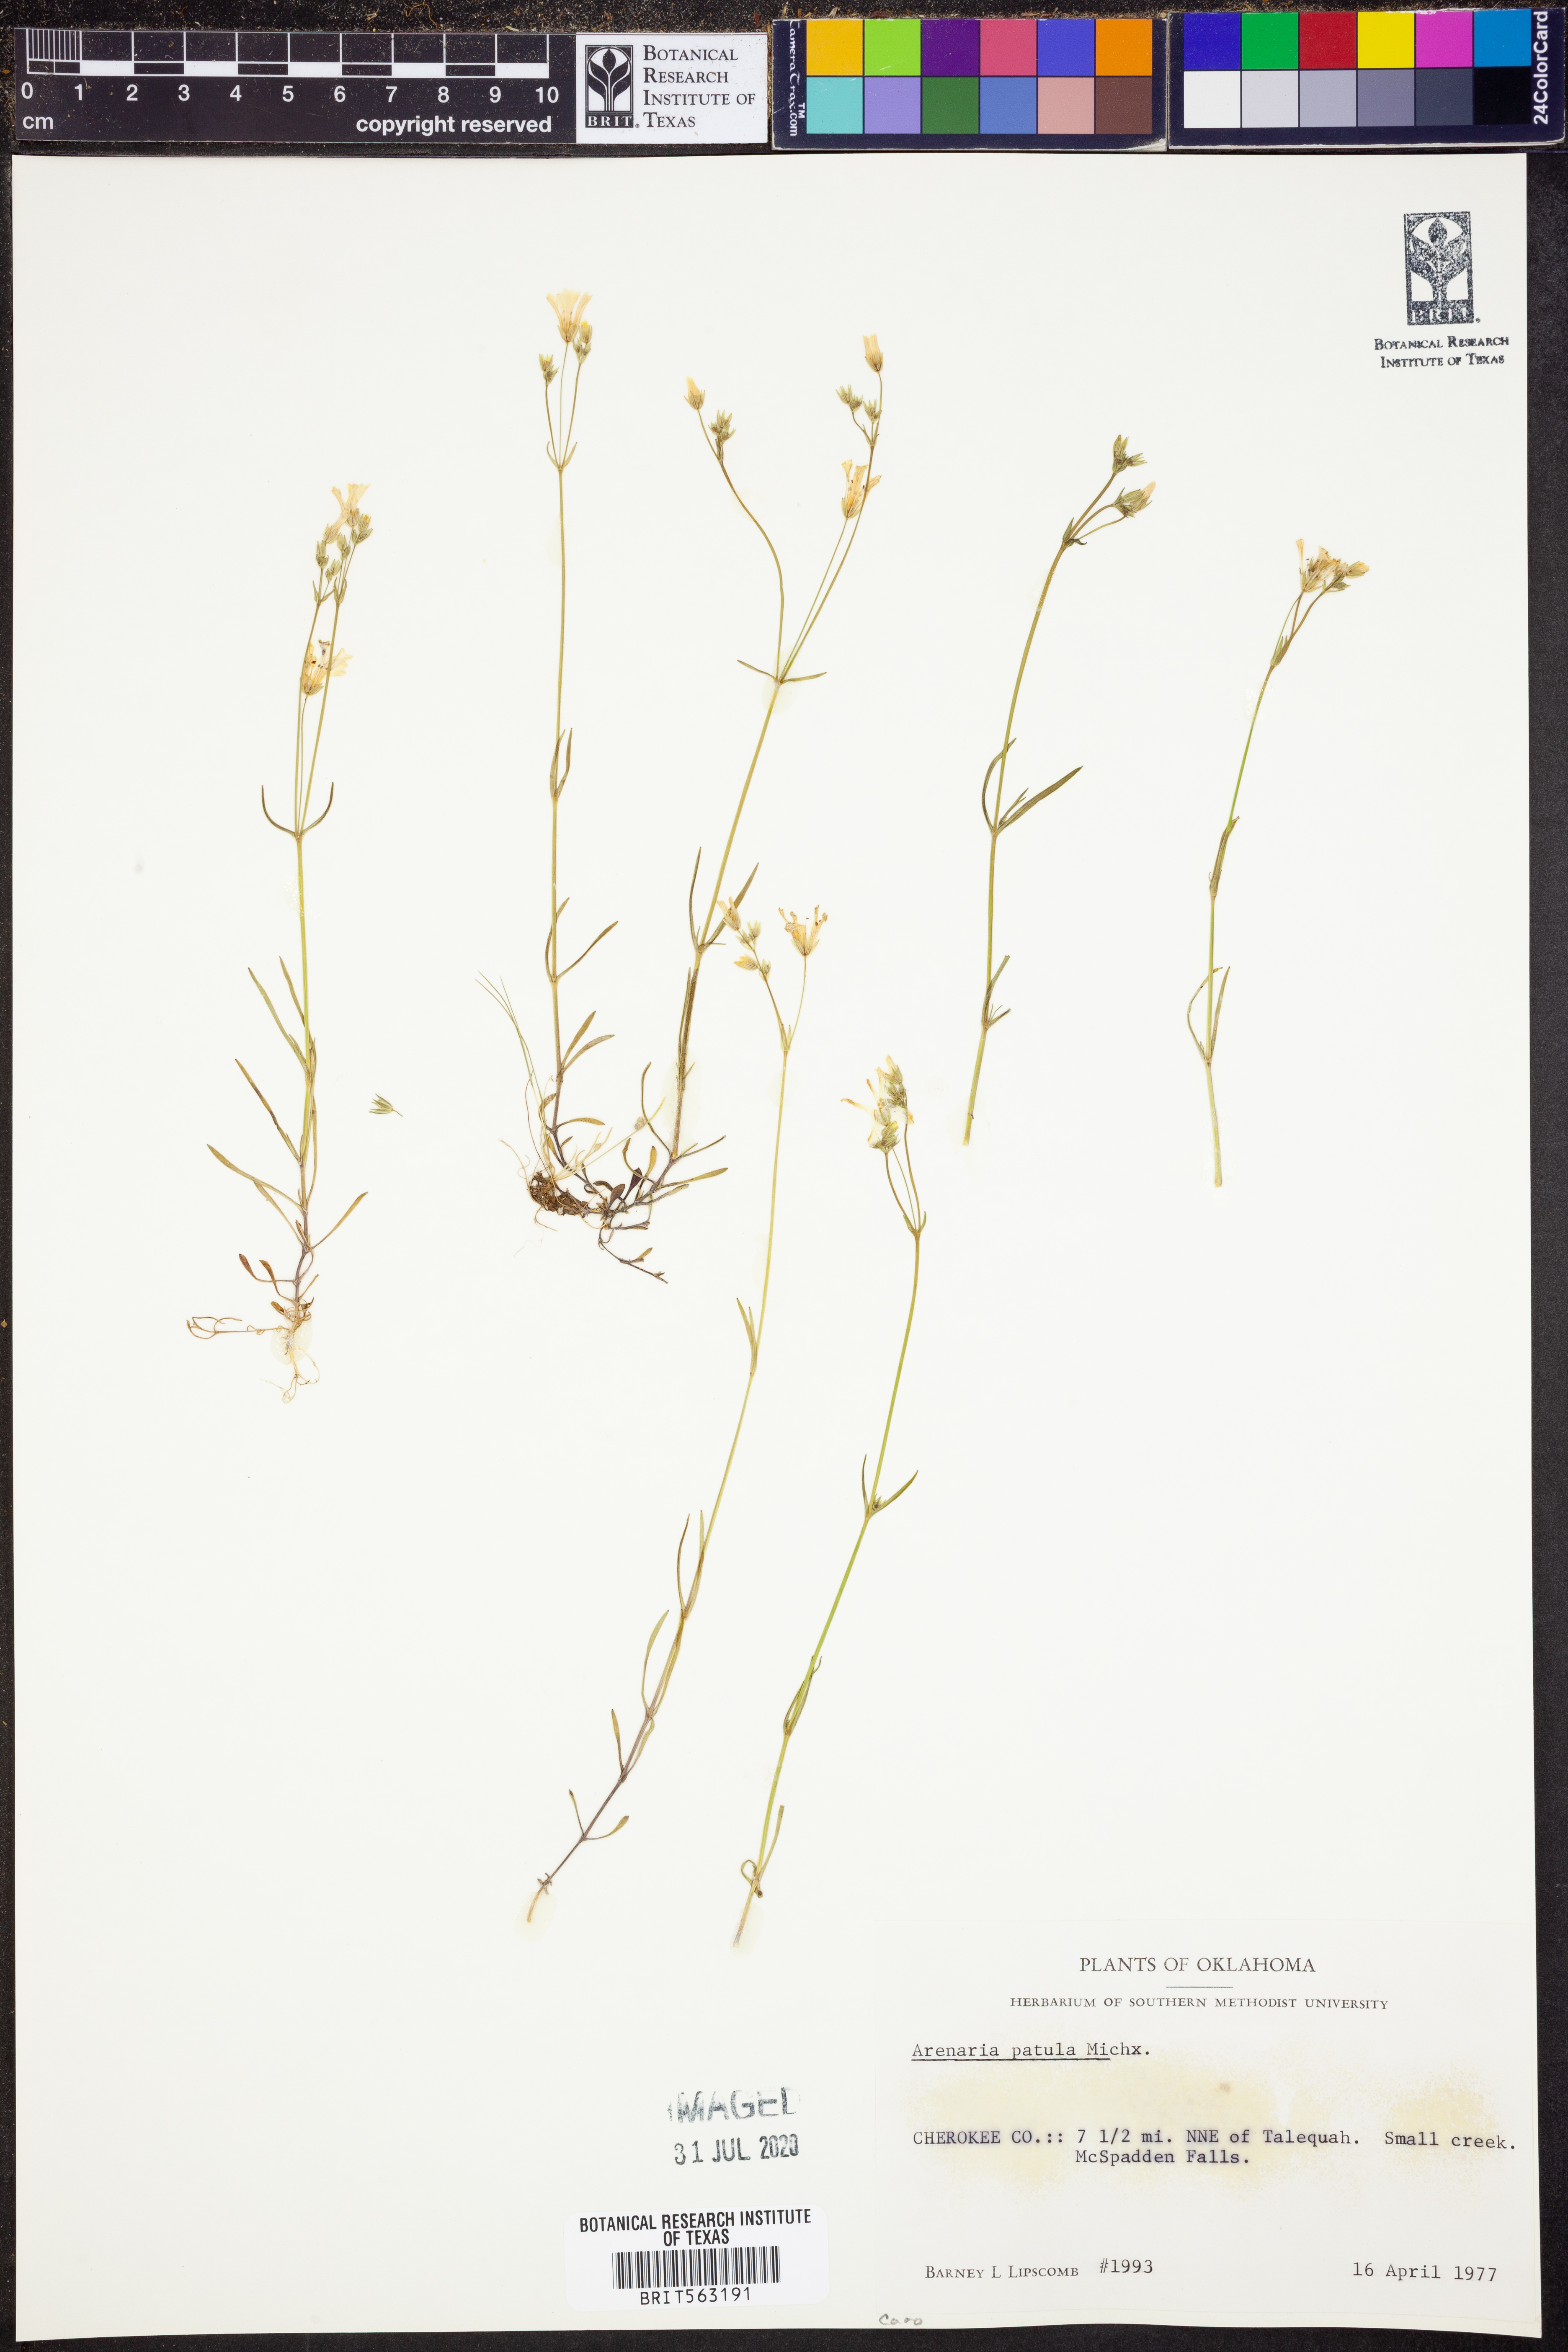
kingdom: Plantae
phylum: Tracheophyta
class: Magnoliopsida
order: Caryophyllales
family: Caryophyllaceae
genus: Mononeuria
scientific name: Mononeuria patula
